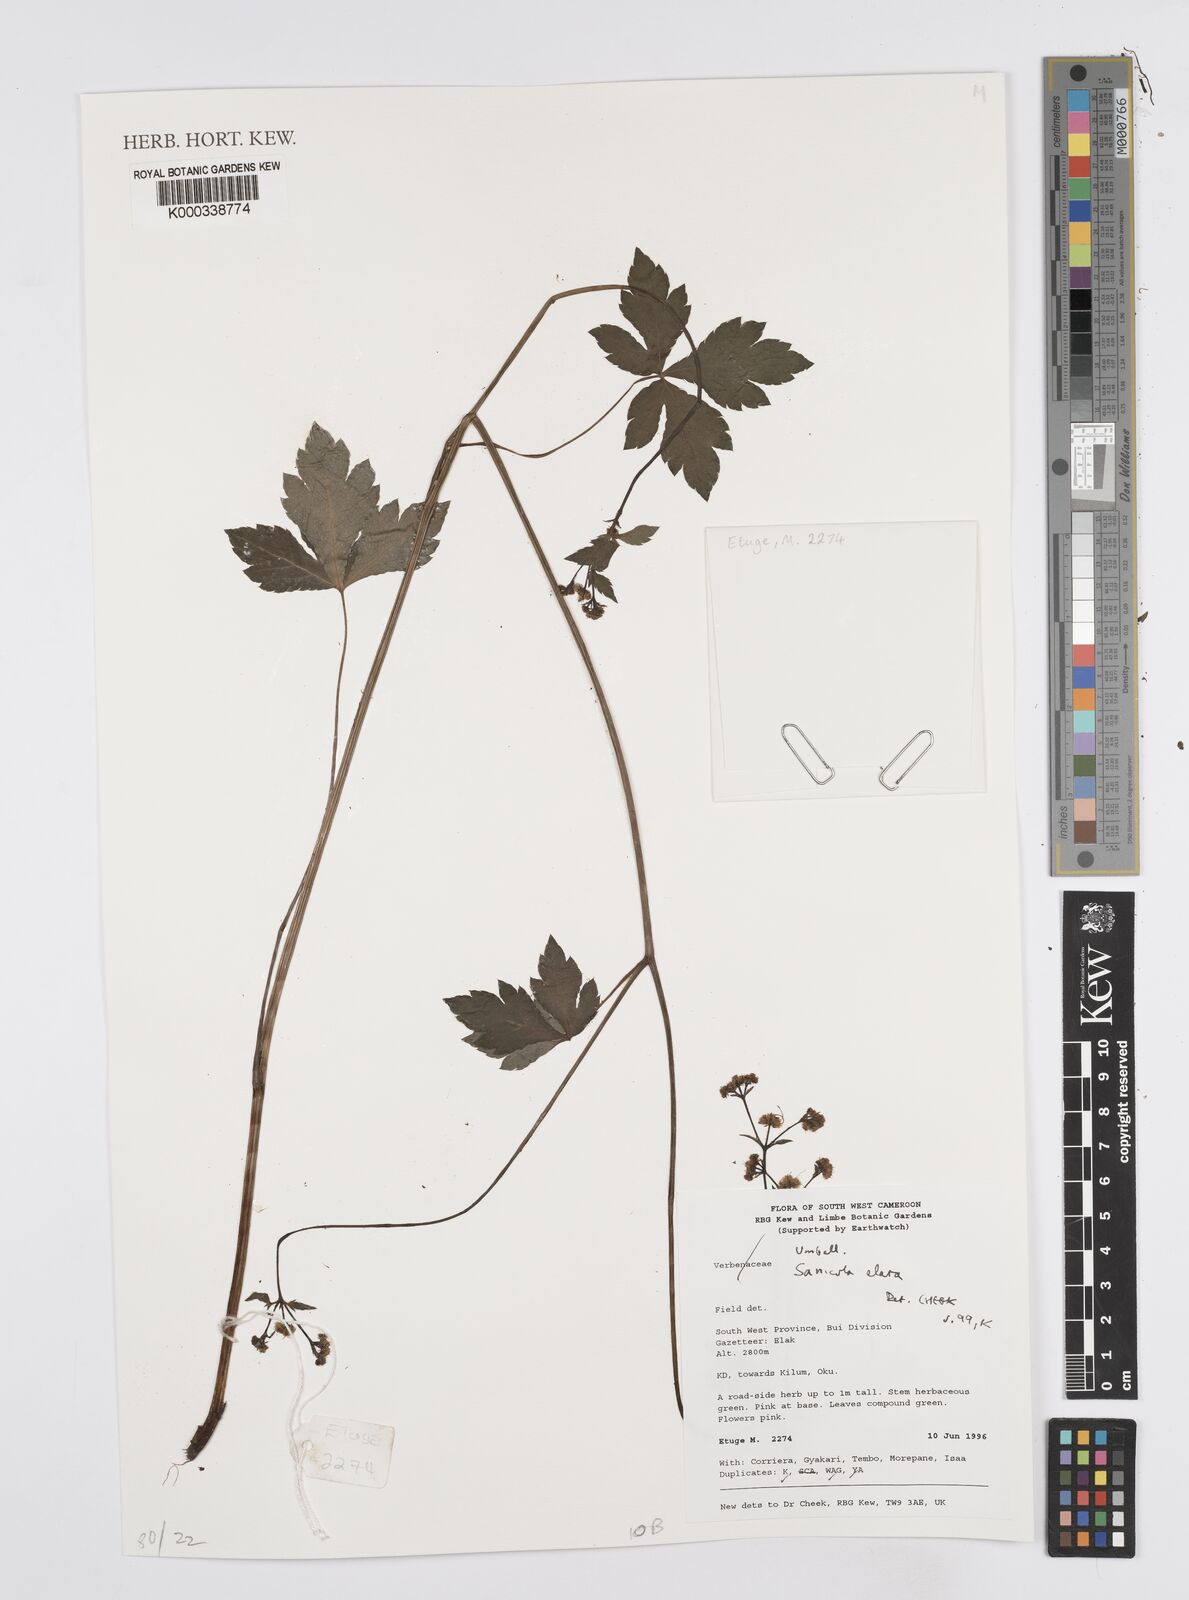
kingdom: Plantae
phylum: Tracheophyta
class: Magnoliopsida
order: Apiales
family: Apiaceae
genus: Sanicula
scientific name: Sanicula
